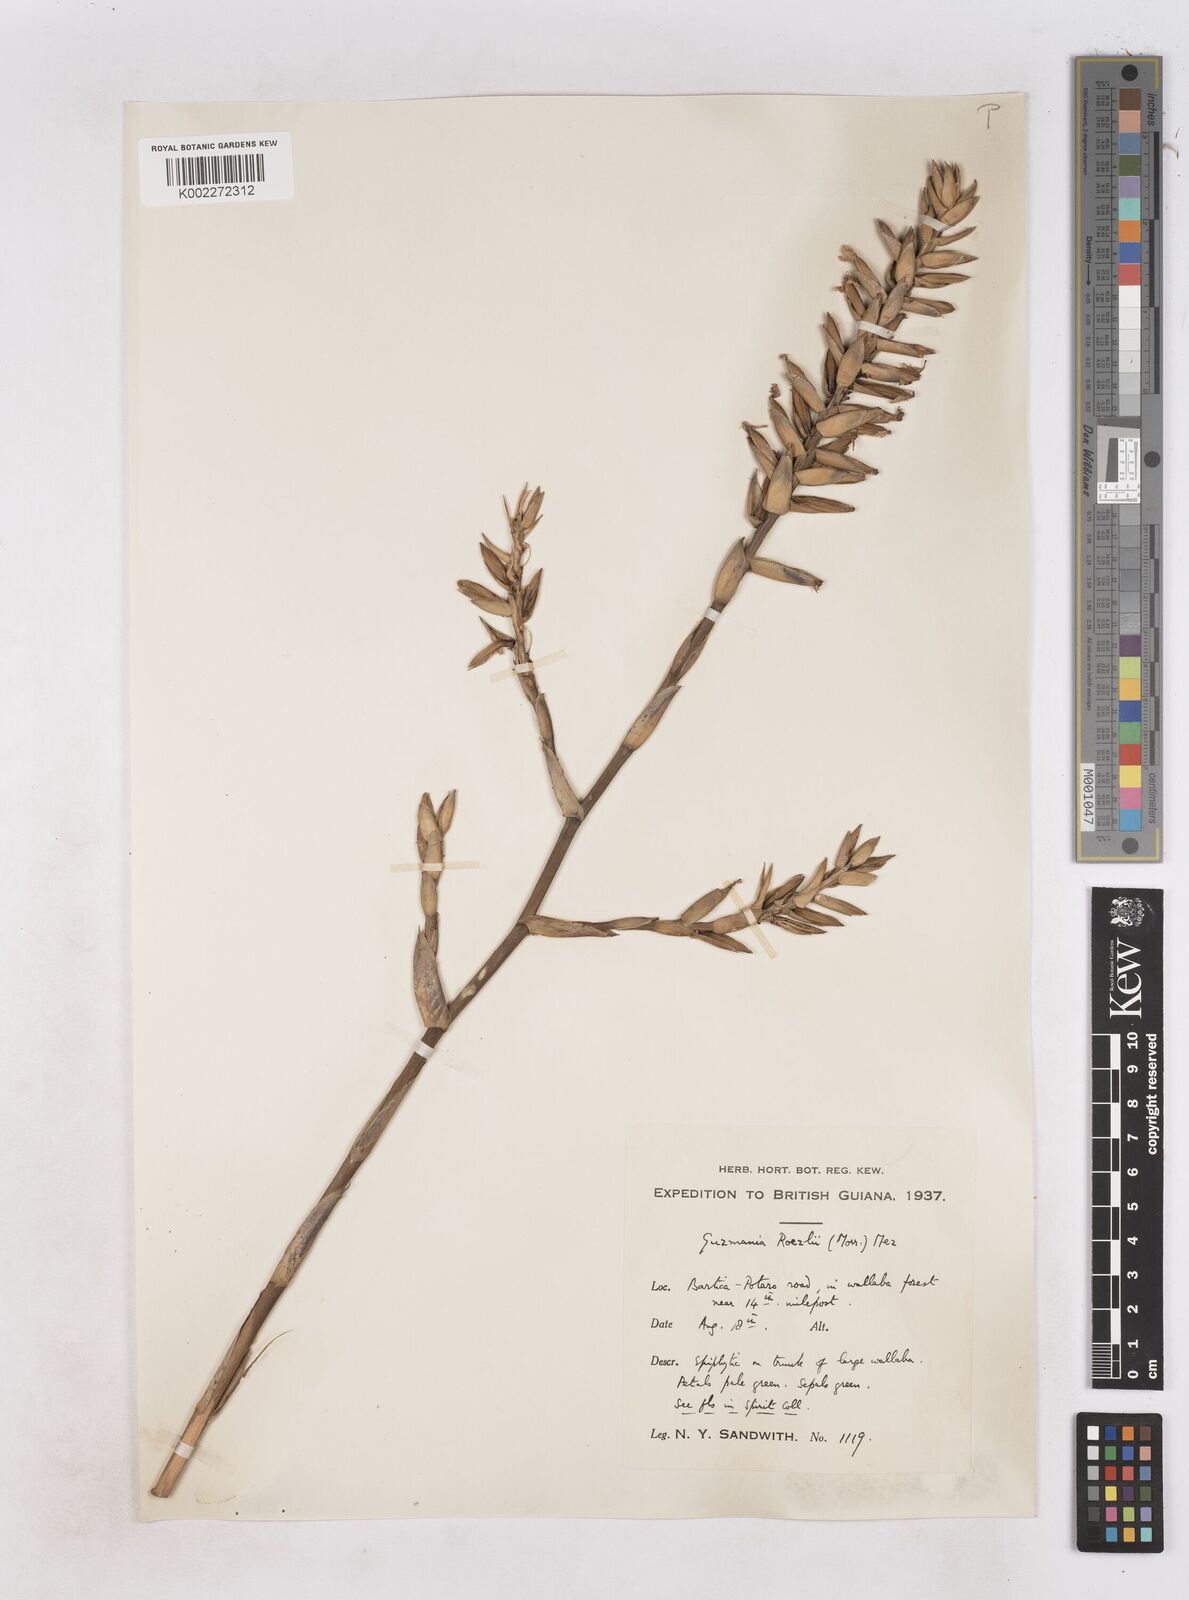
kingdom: Plantae
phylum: Tracheophyta
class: Liliopsida
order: Poales
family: Bromeliaceae
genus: Guzmania
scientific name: Guzmania roezlii
